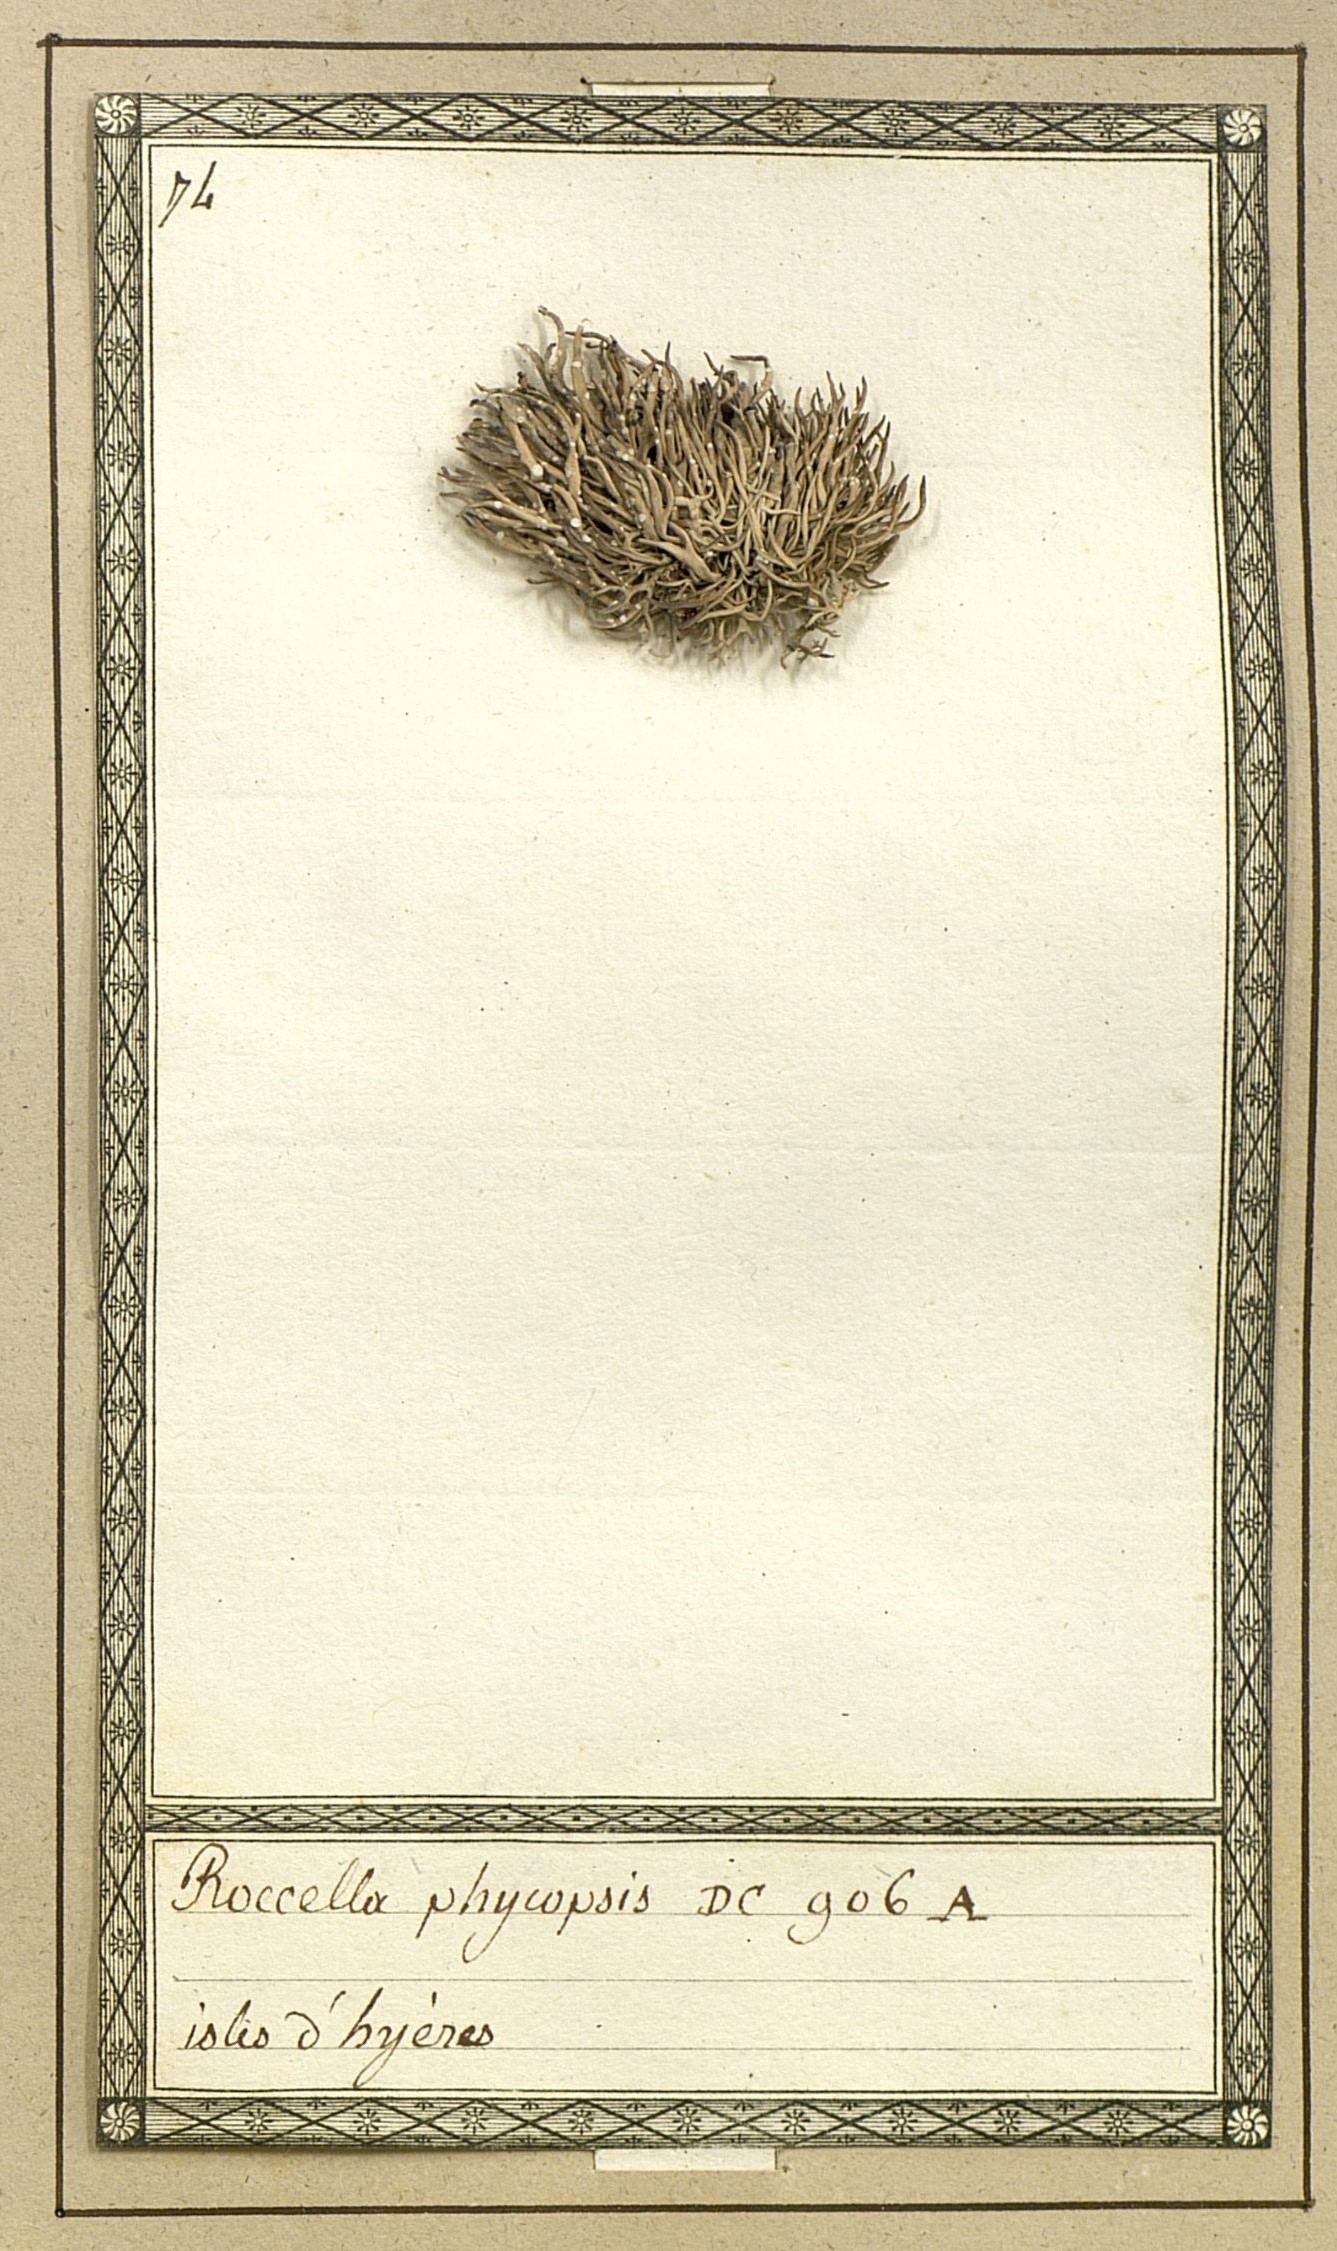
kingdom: Fungi
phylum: Ascomycota
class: Arthoniomycetes
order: Arthoniales
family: Roccellaceae
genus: Roccella
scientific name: Roccella phycopsis
